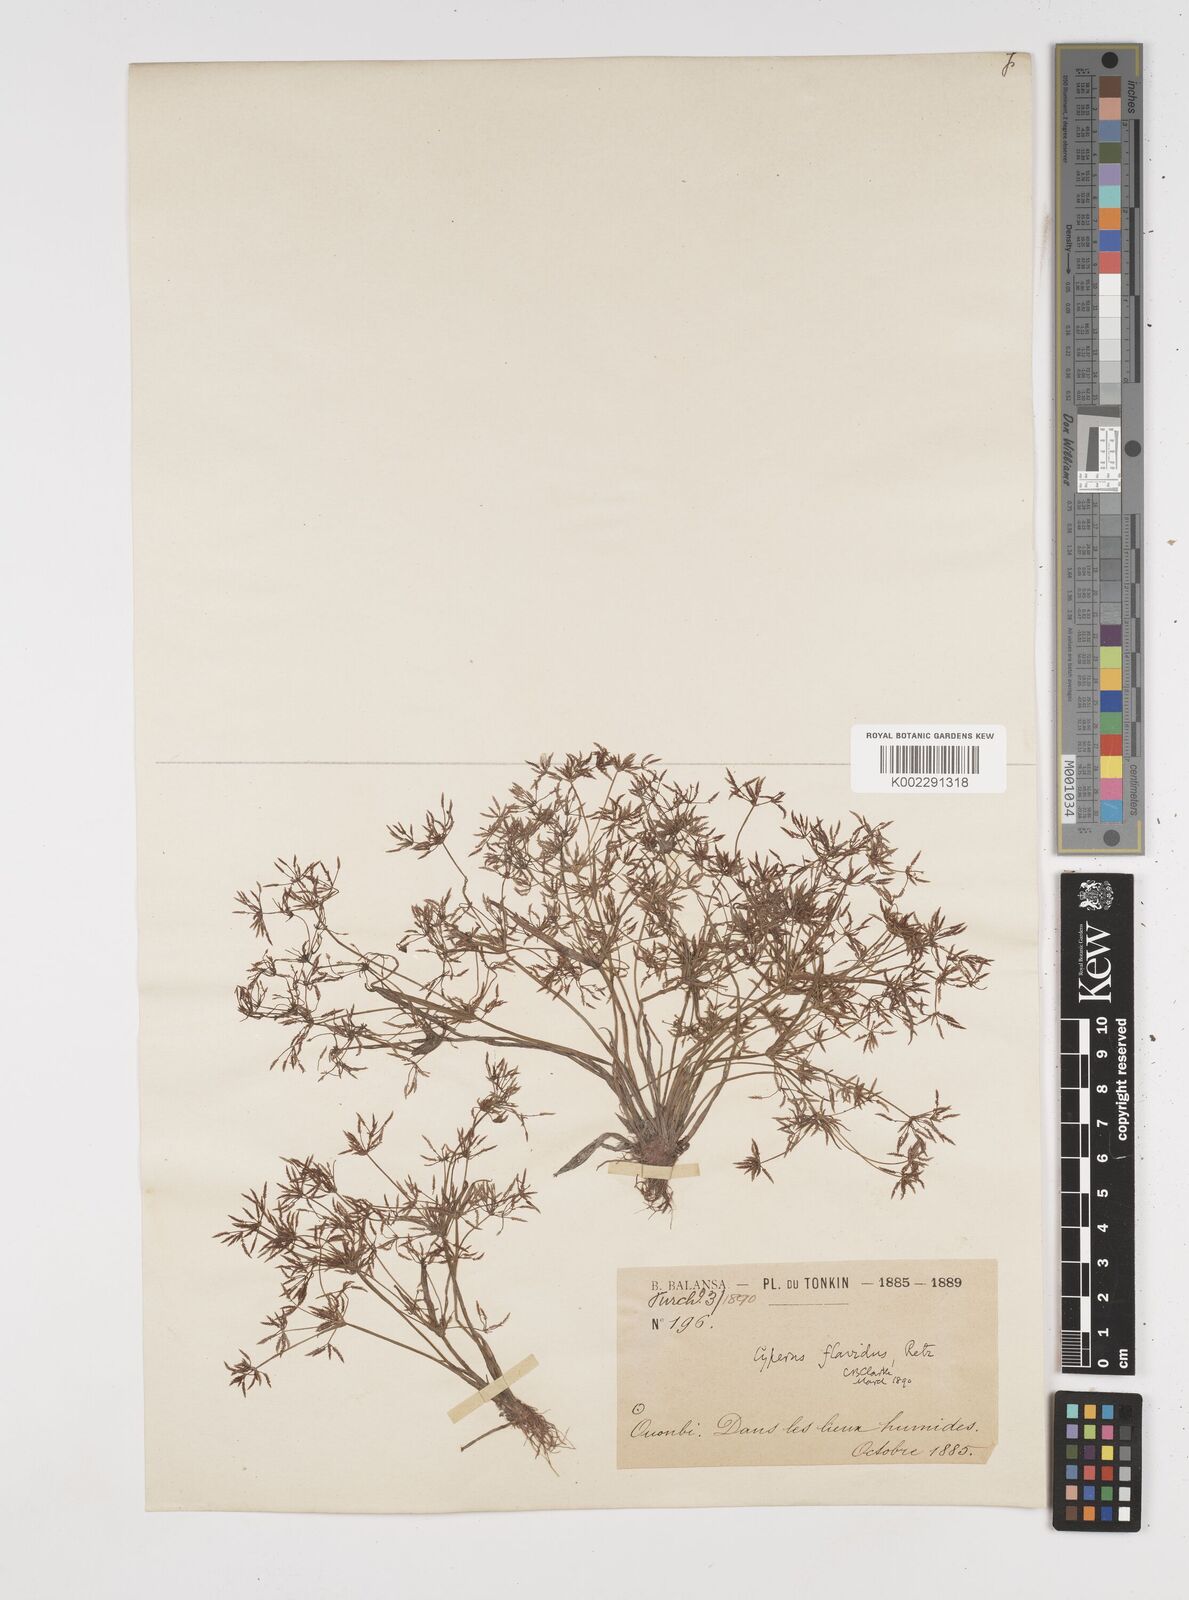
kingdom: Plantae
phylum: Tracheophyta
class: Liliopsida
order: Poales
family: Cyperaceae
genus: Cyperus
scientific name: Cyperus tenuispica
